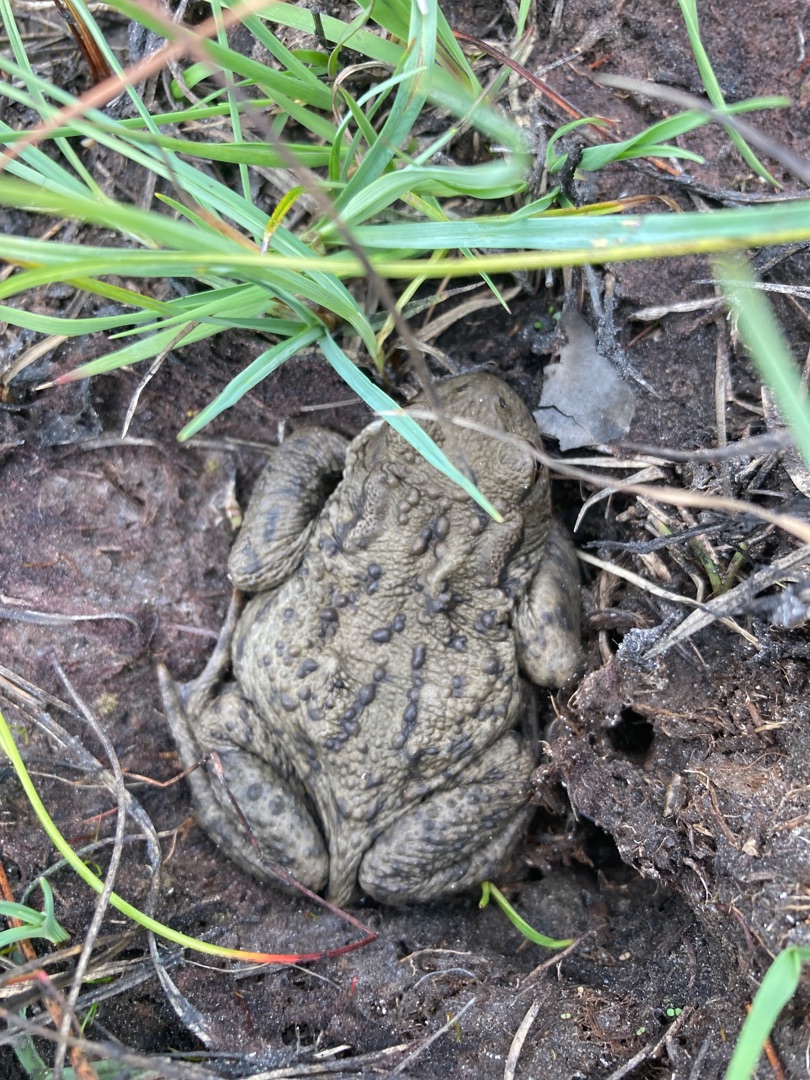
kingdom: Animalia
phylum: Chordata
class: Amphibia
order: Anura
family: Bufonidae
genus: Bufo
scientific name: Bufo bufo
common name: Skrubtudse
